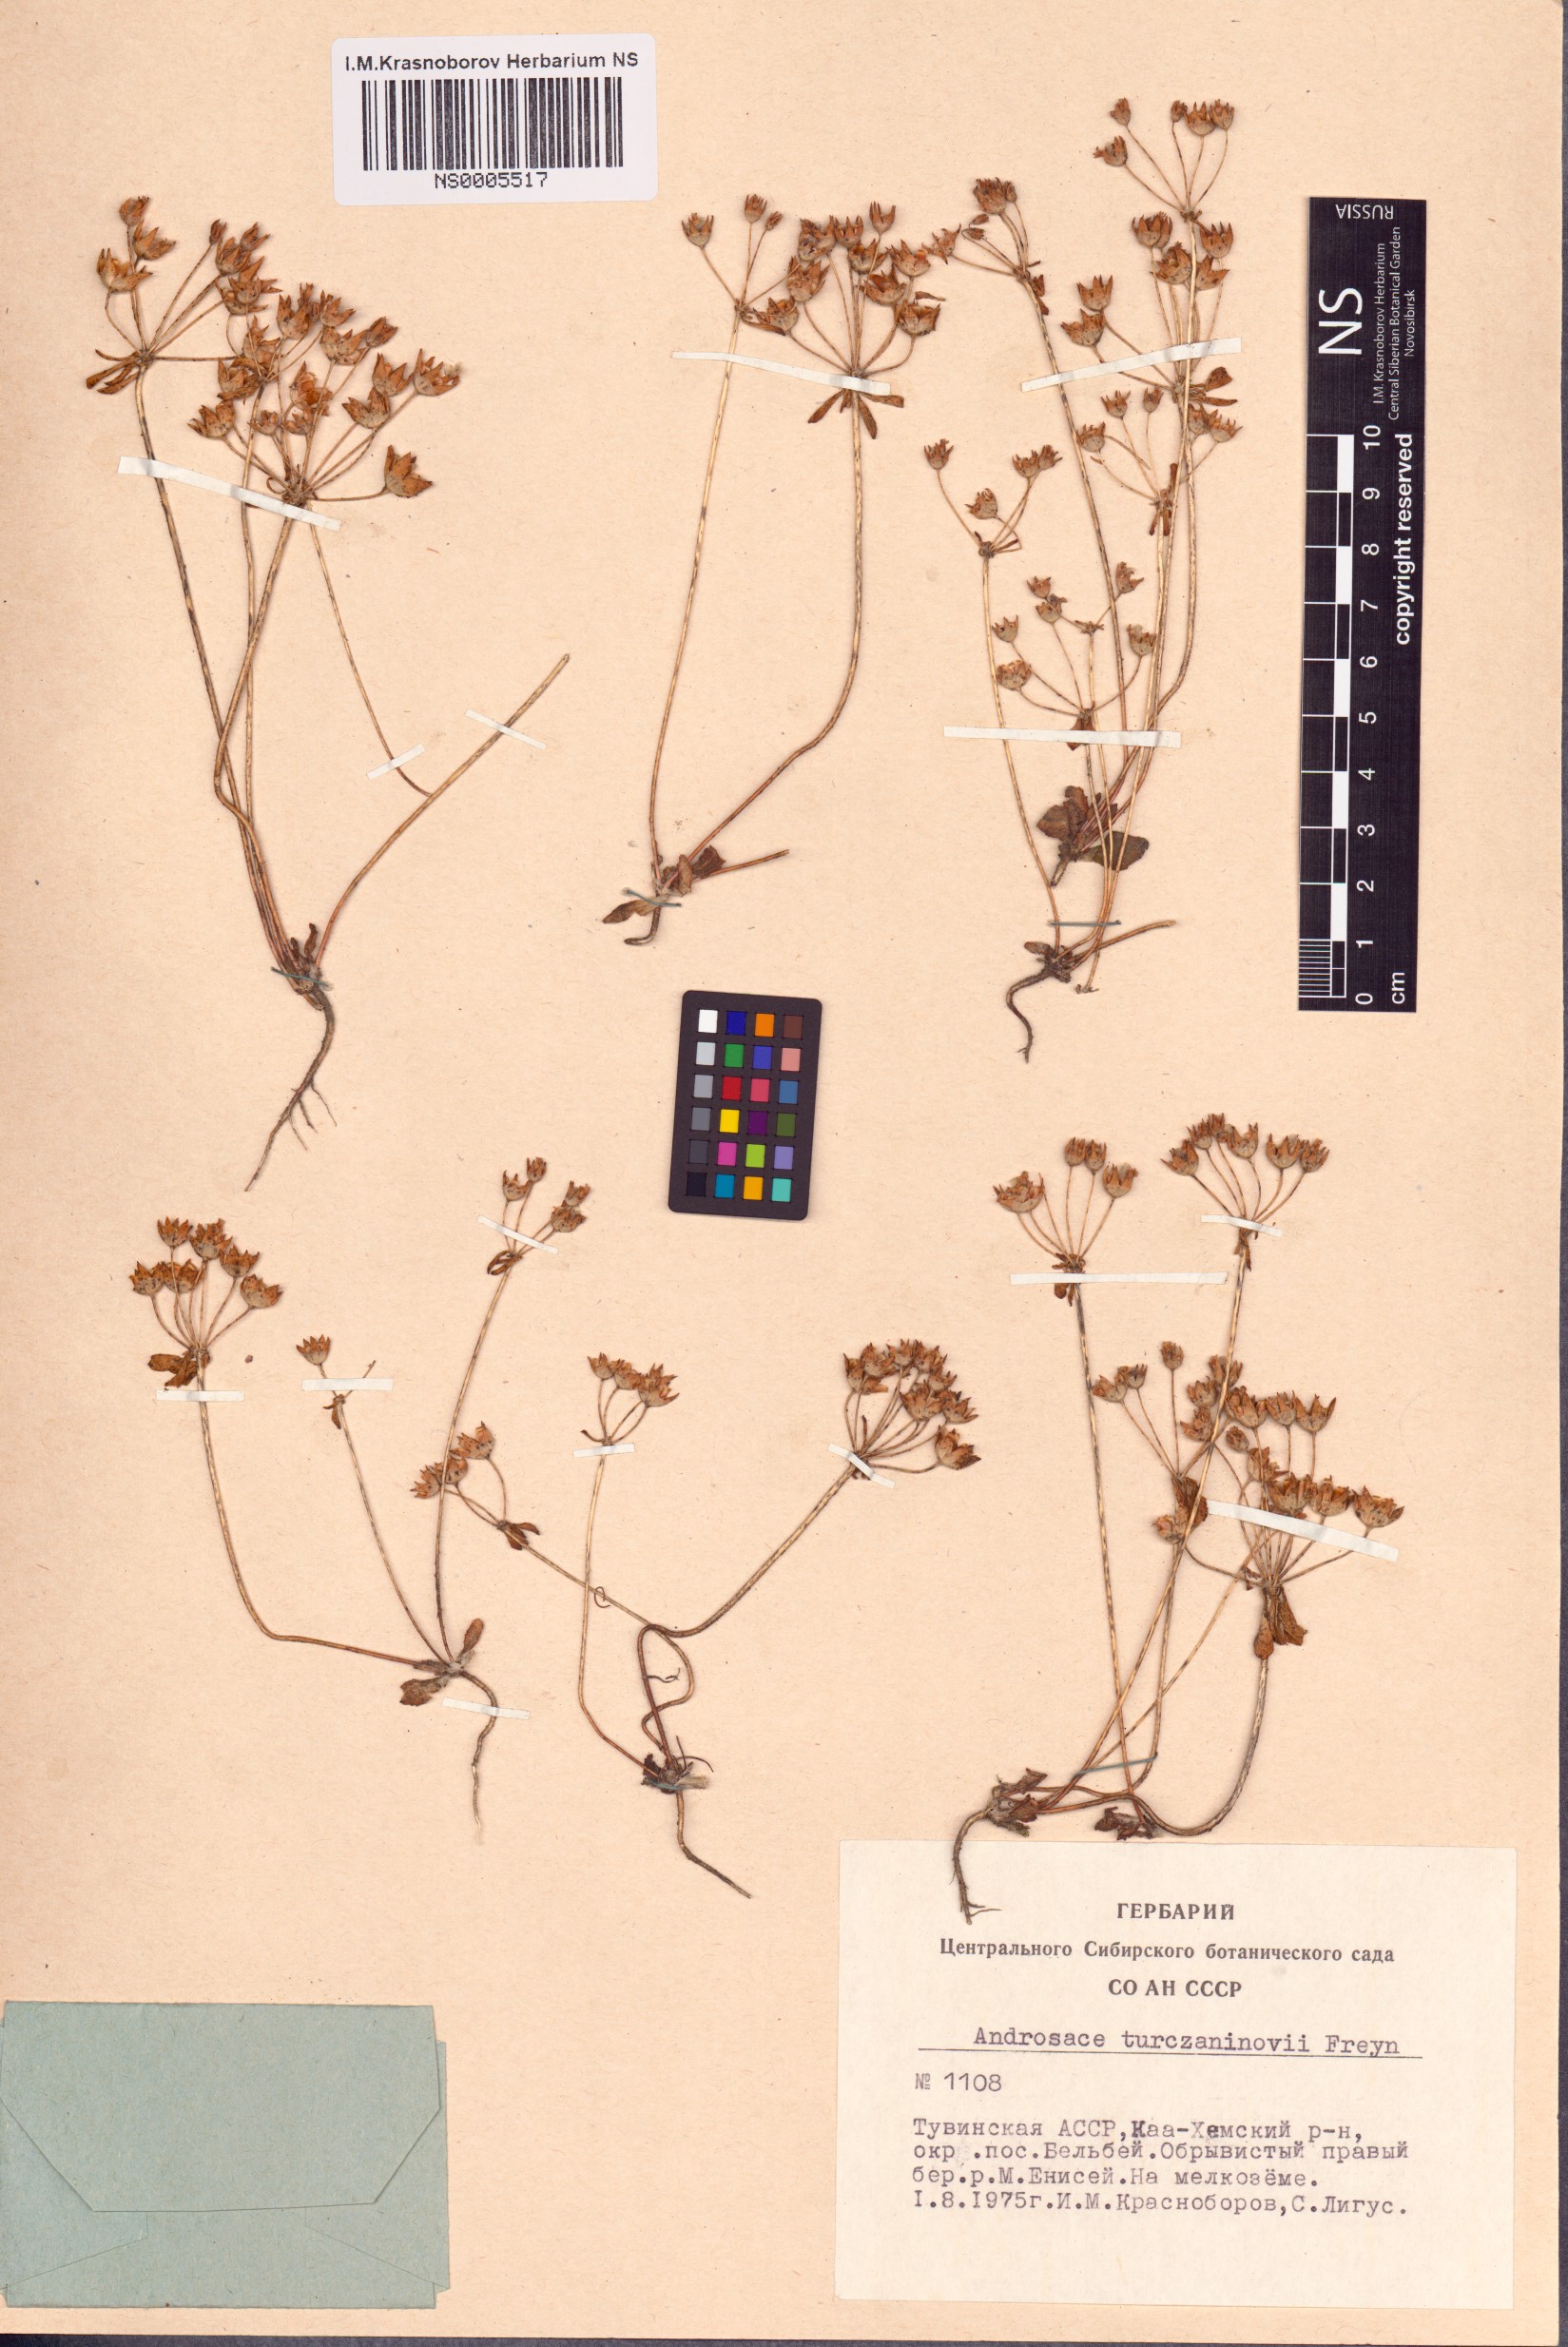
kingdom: Plantae
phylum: Tracheophyta
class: Magnoliopsida
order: Ericales
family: Primulaceae
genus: Androsace
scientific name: Androsace maxima
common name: Annual androsace
